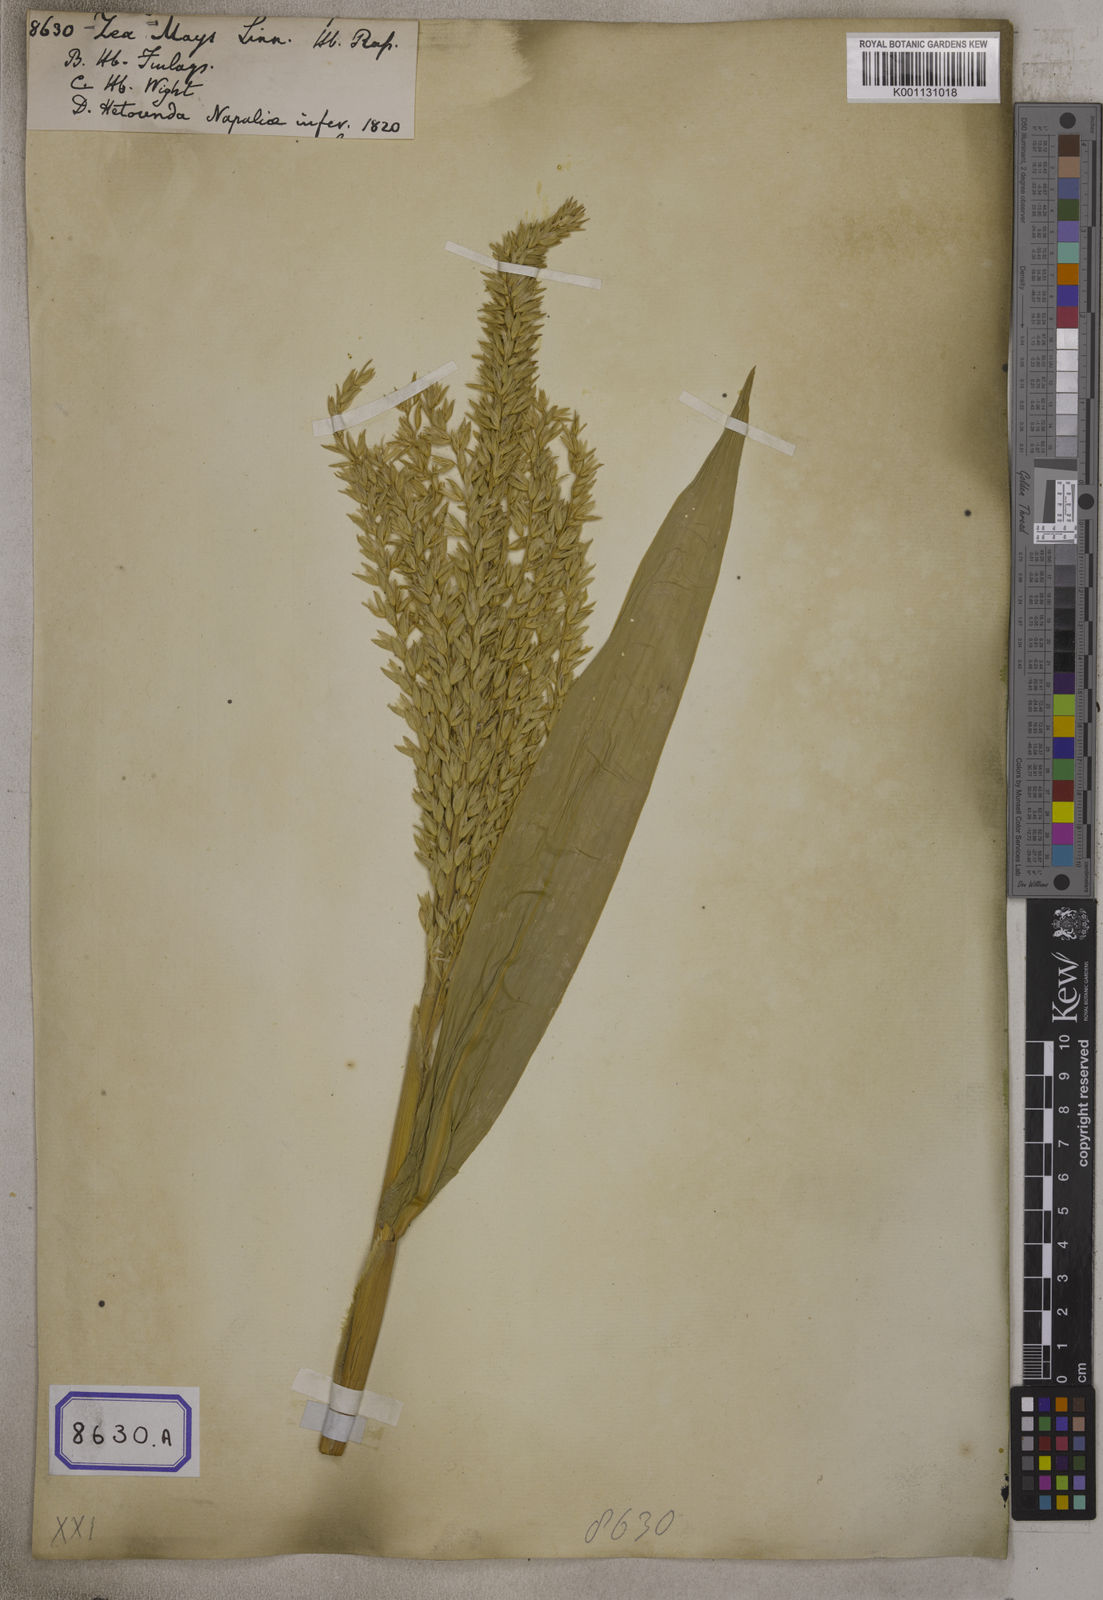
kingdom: Plantae
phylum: Tracheophyta
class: Liliopsida
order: Poales
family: Poaceae
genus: Zea
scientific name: Zea mays
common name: Maize
